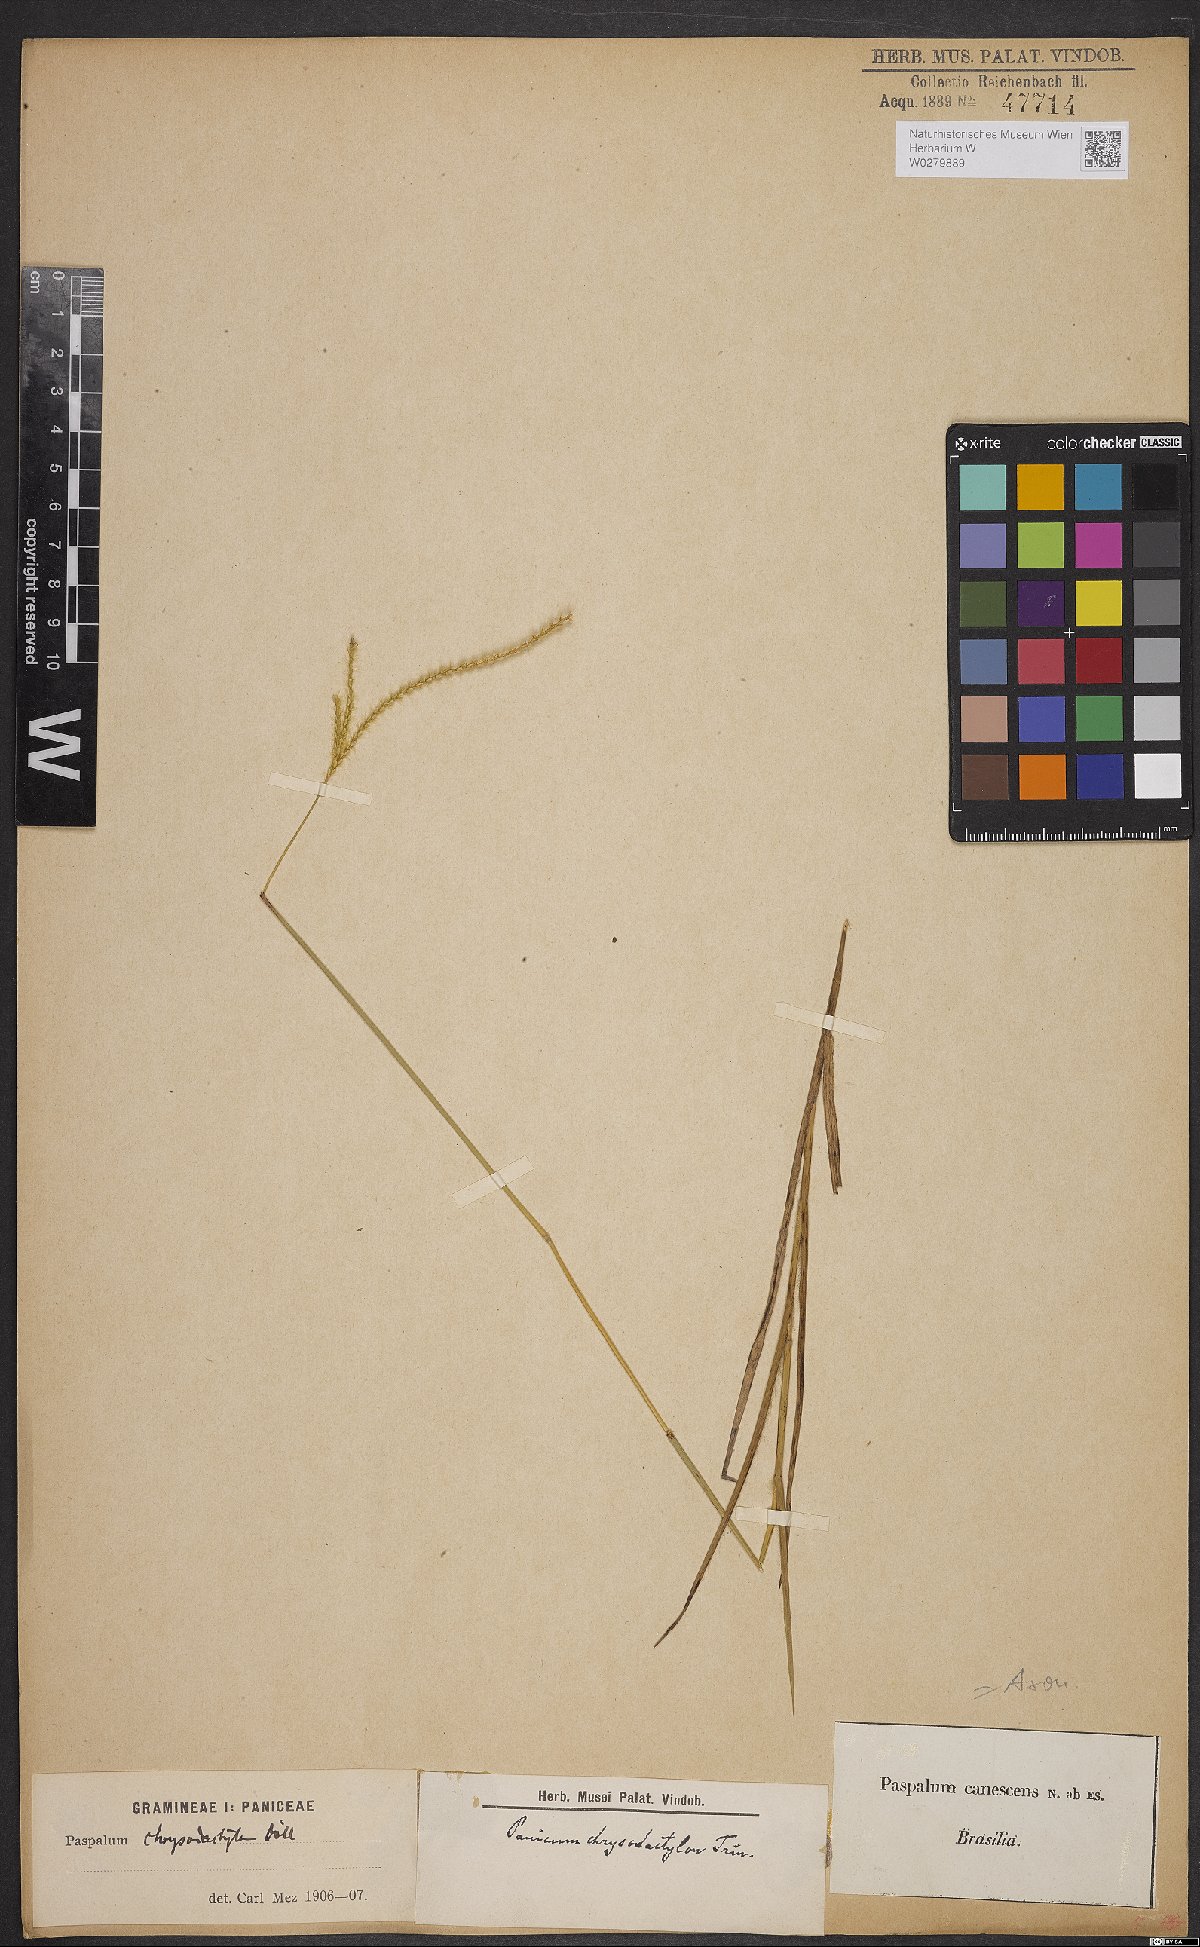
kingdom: Plantae
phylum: Tracheophyta
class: Liliopsida
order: Poales
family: Poaceae
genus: Axonopus
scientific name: Axonopus aureus
